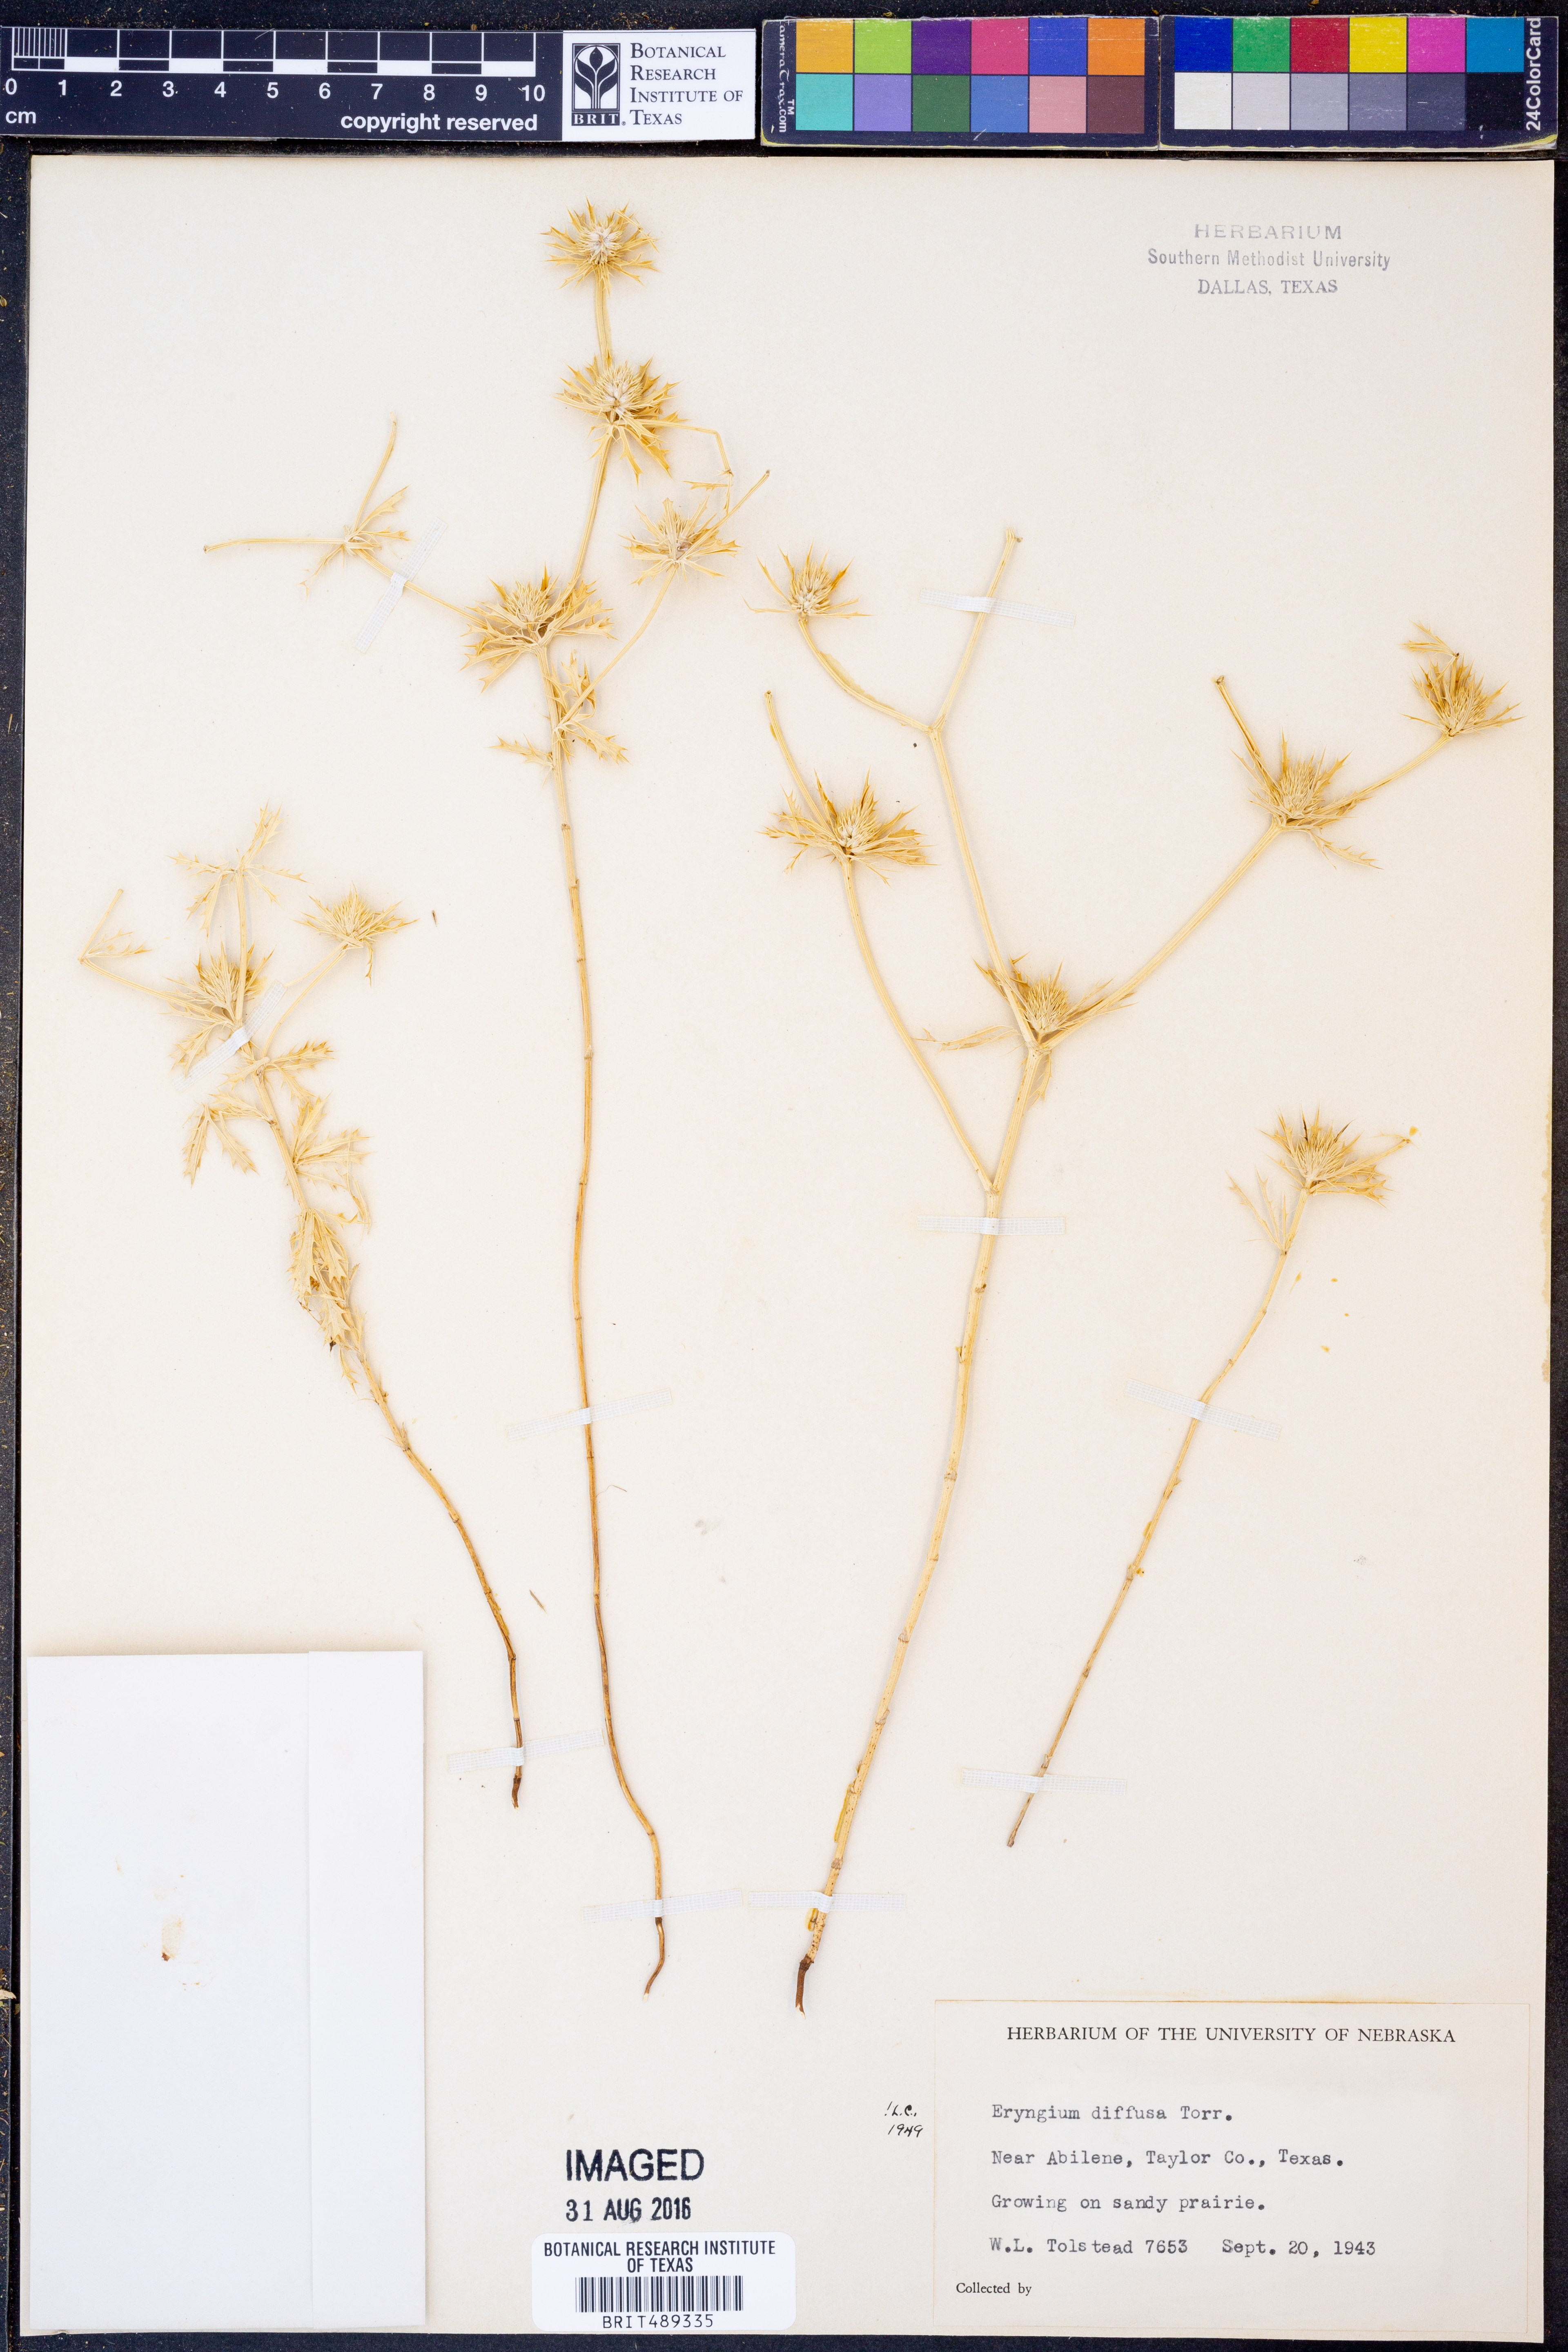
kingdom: Plantae
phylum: Tracheophyta
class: Magnoliopsida
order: Apiales
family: Apiaceae
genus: Eryngium
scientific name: Eryngium diffusum
